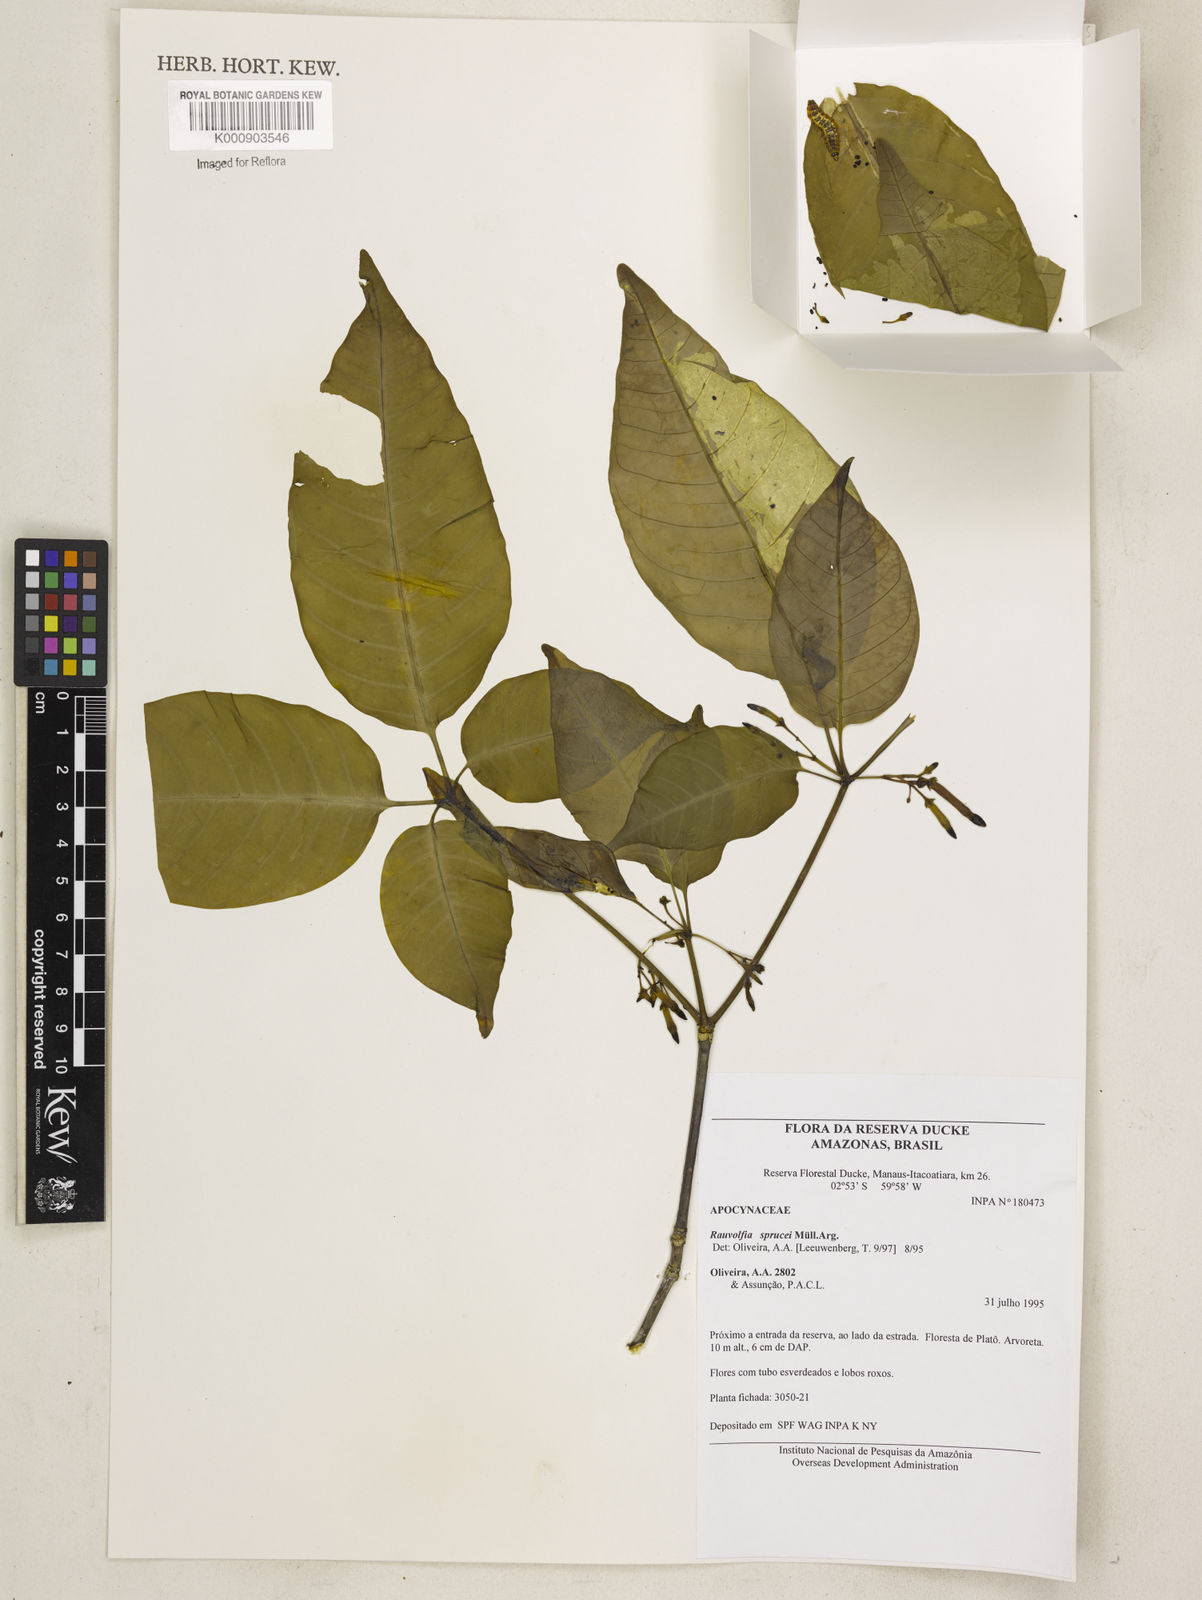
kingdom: Plantae
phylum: Tracheophyta
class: Magnoliopsida
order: Gentianales
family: Apocynaceae
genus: Rauvolfia
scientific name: Rauvolfia
